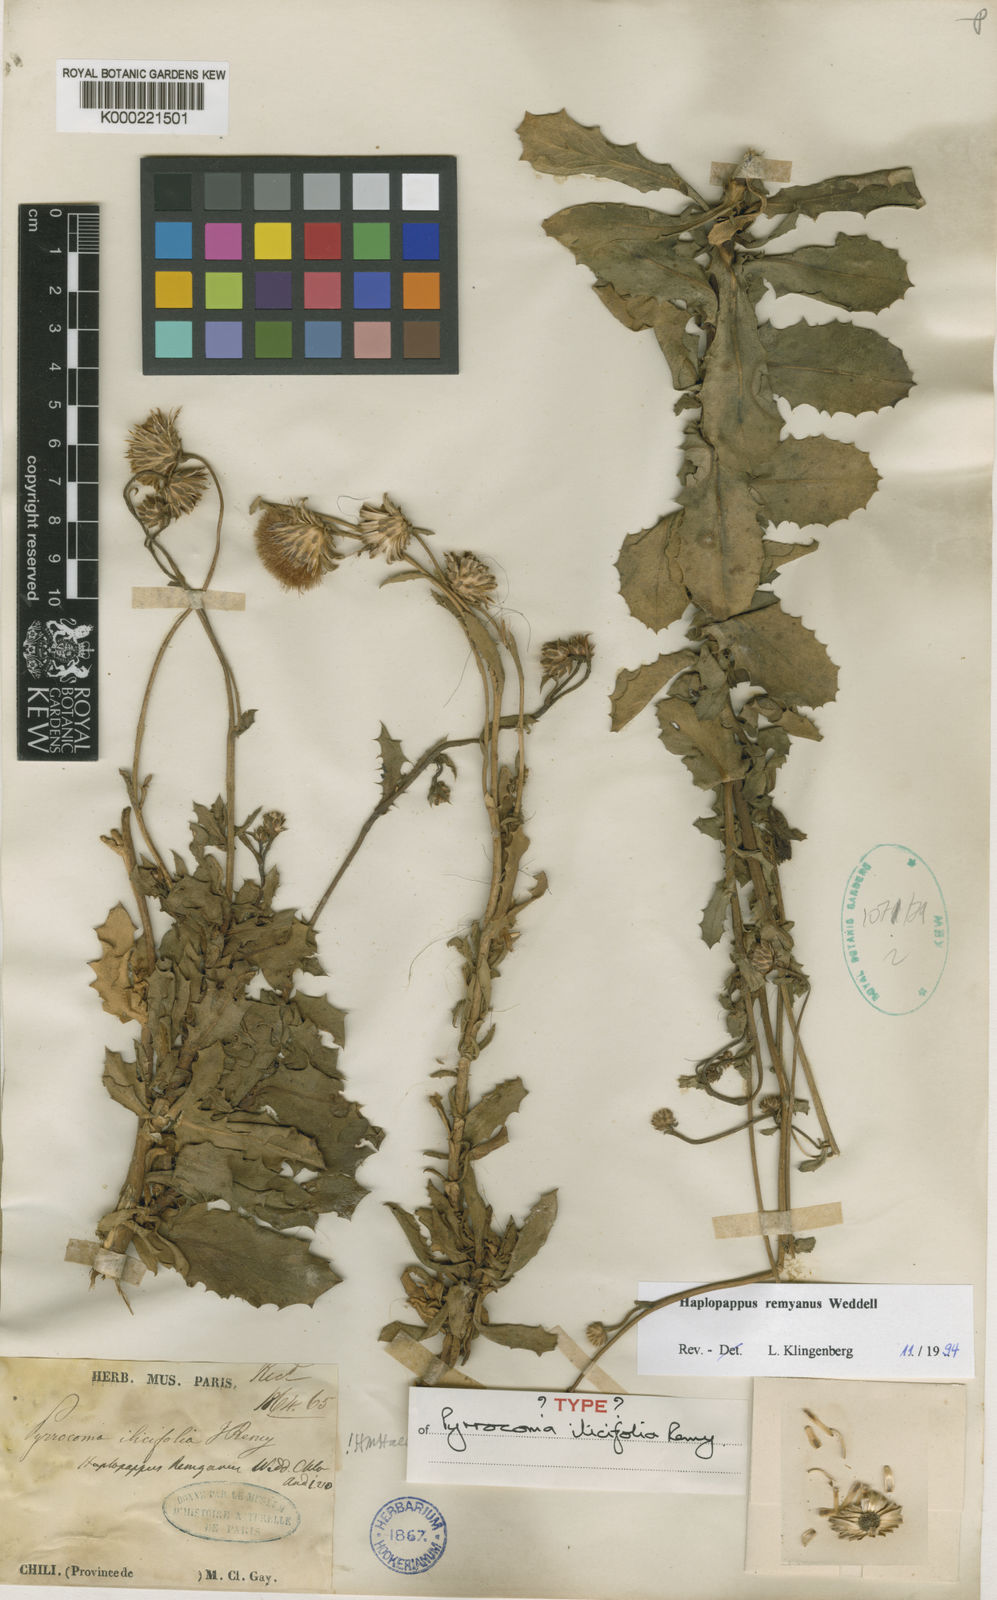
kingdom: Plantae
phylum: Tracheophyta
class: Magnoliopsida
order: Asterales
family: Asteraceae
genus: Haplopappus
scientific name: Haplopappus remyanus
